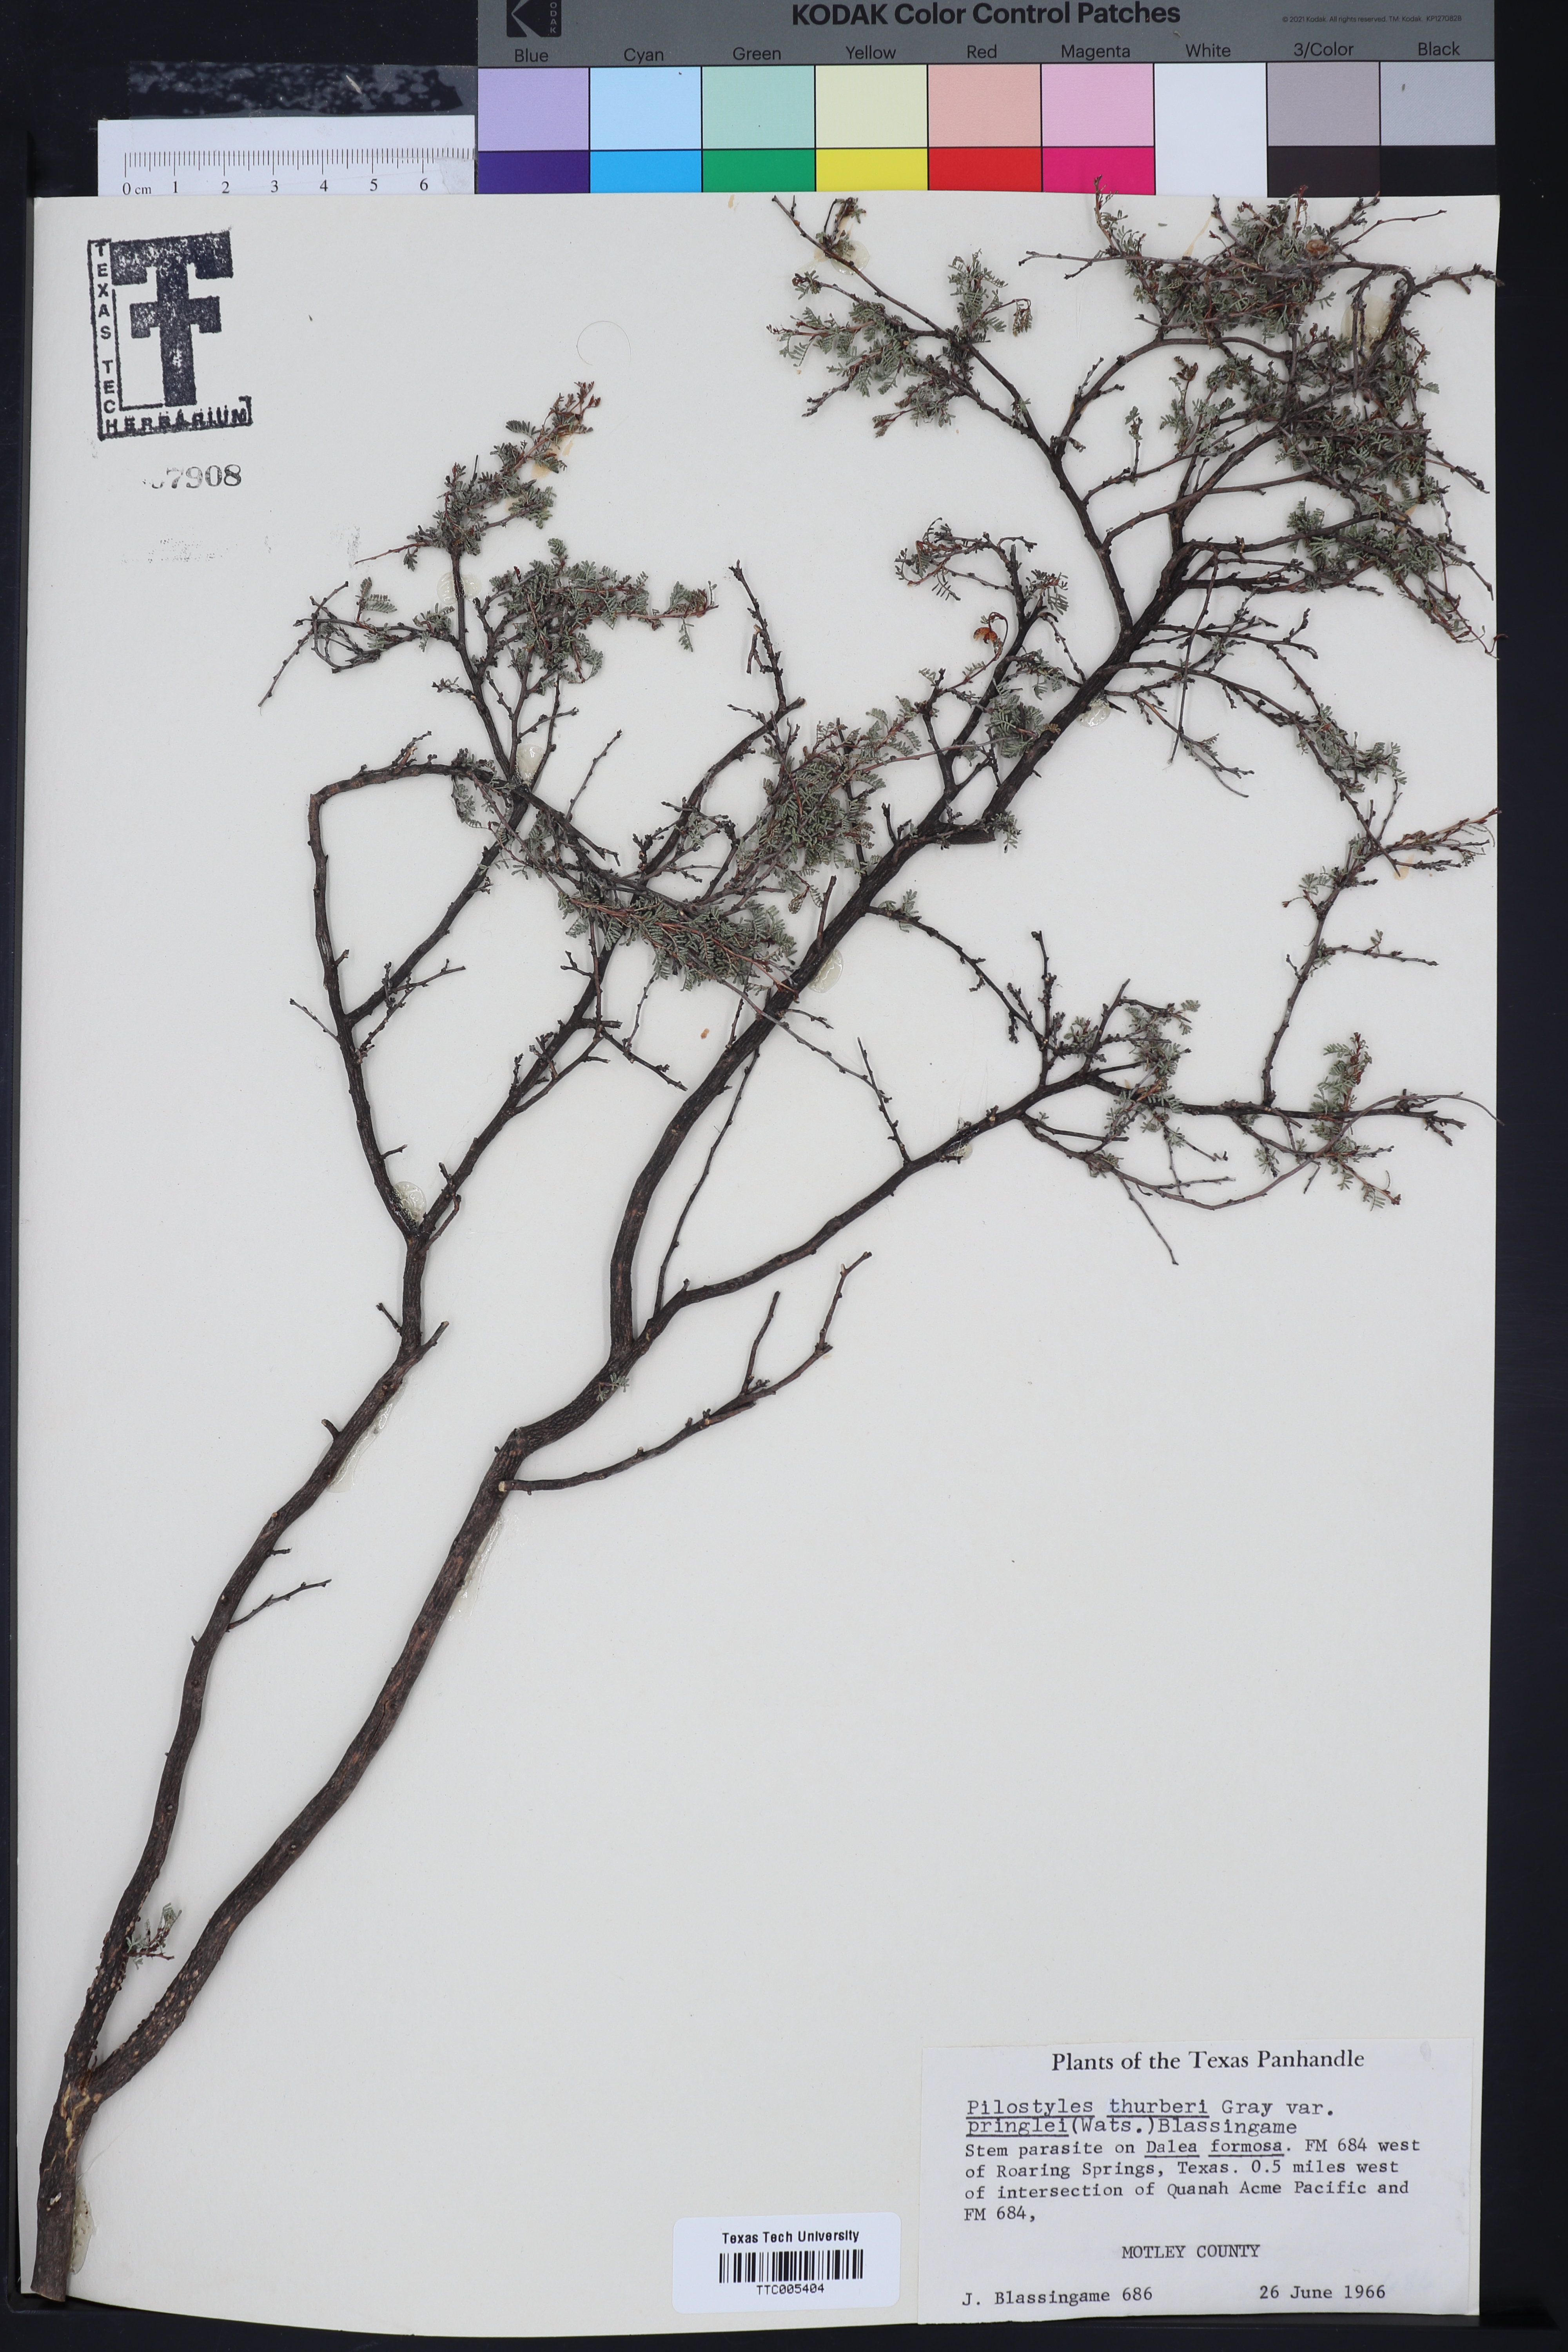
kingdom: Plantae
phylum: Tracheophyta
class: Magnoliopsida
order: Cucurbitales
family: Apodanthaceae
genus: Pilostyles
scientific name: Pilostyles thurberi
